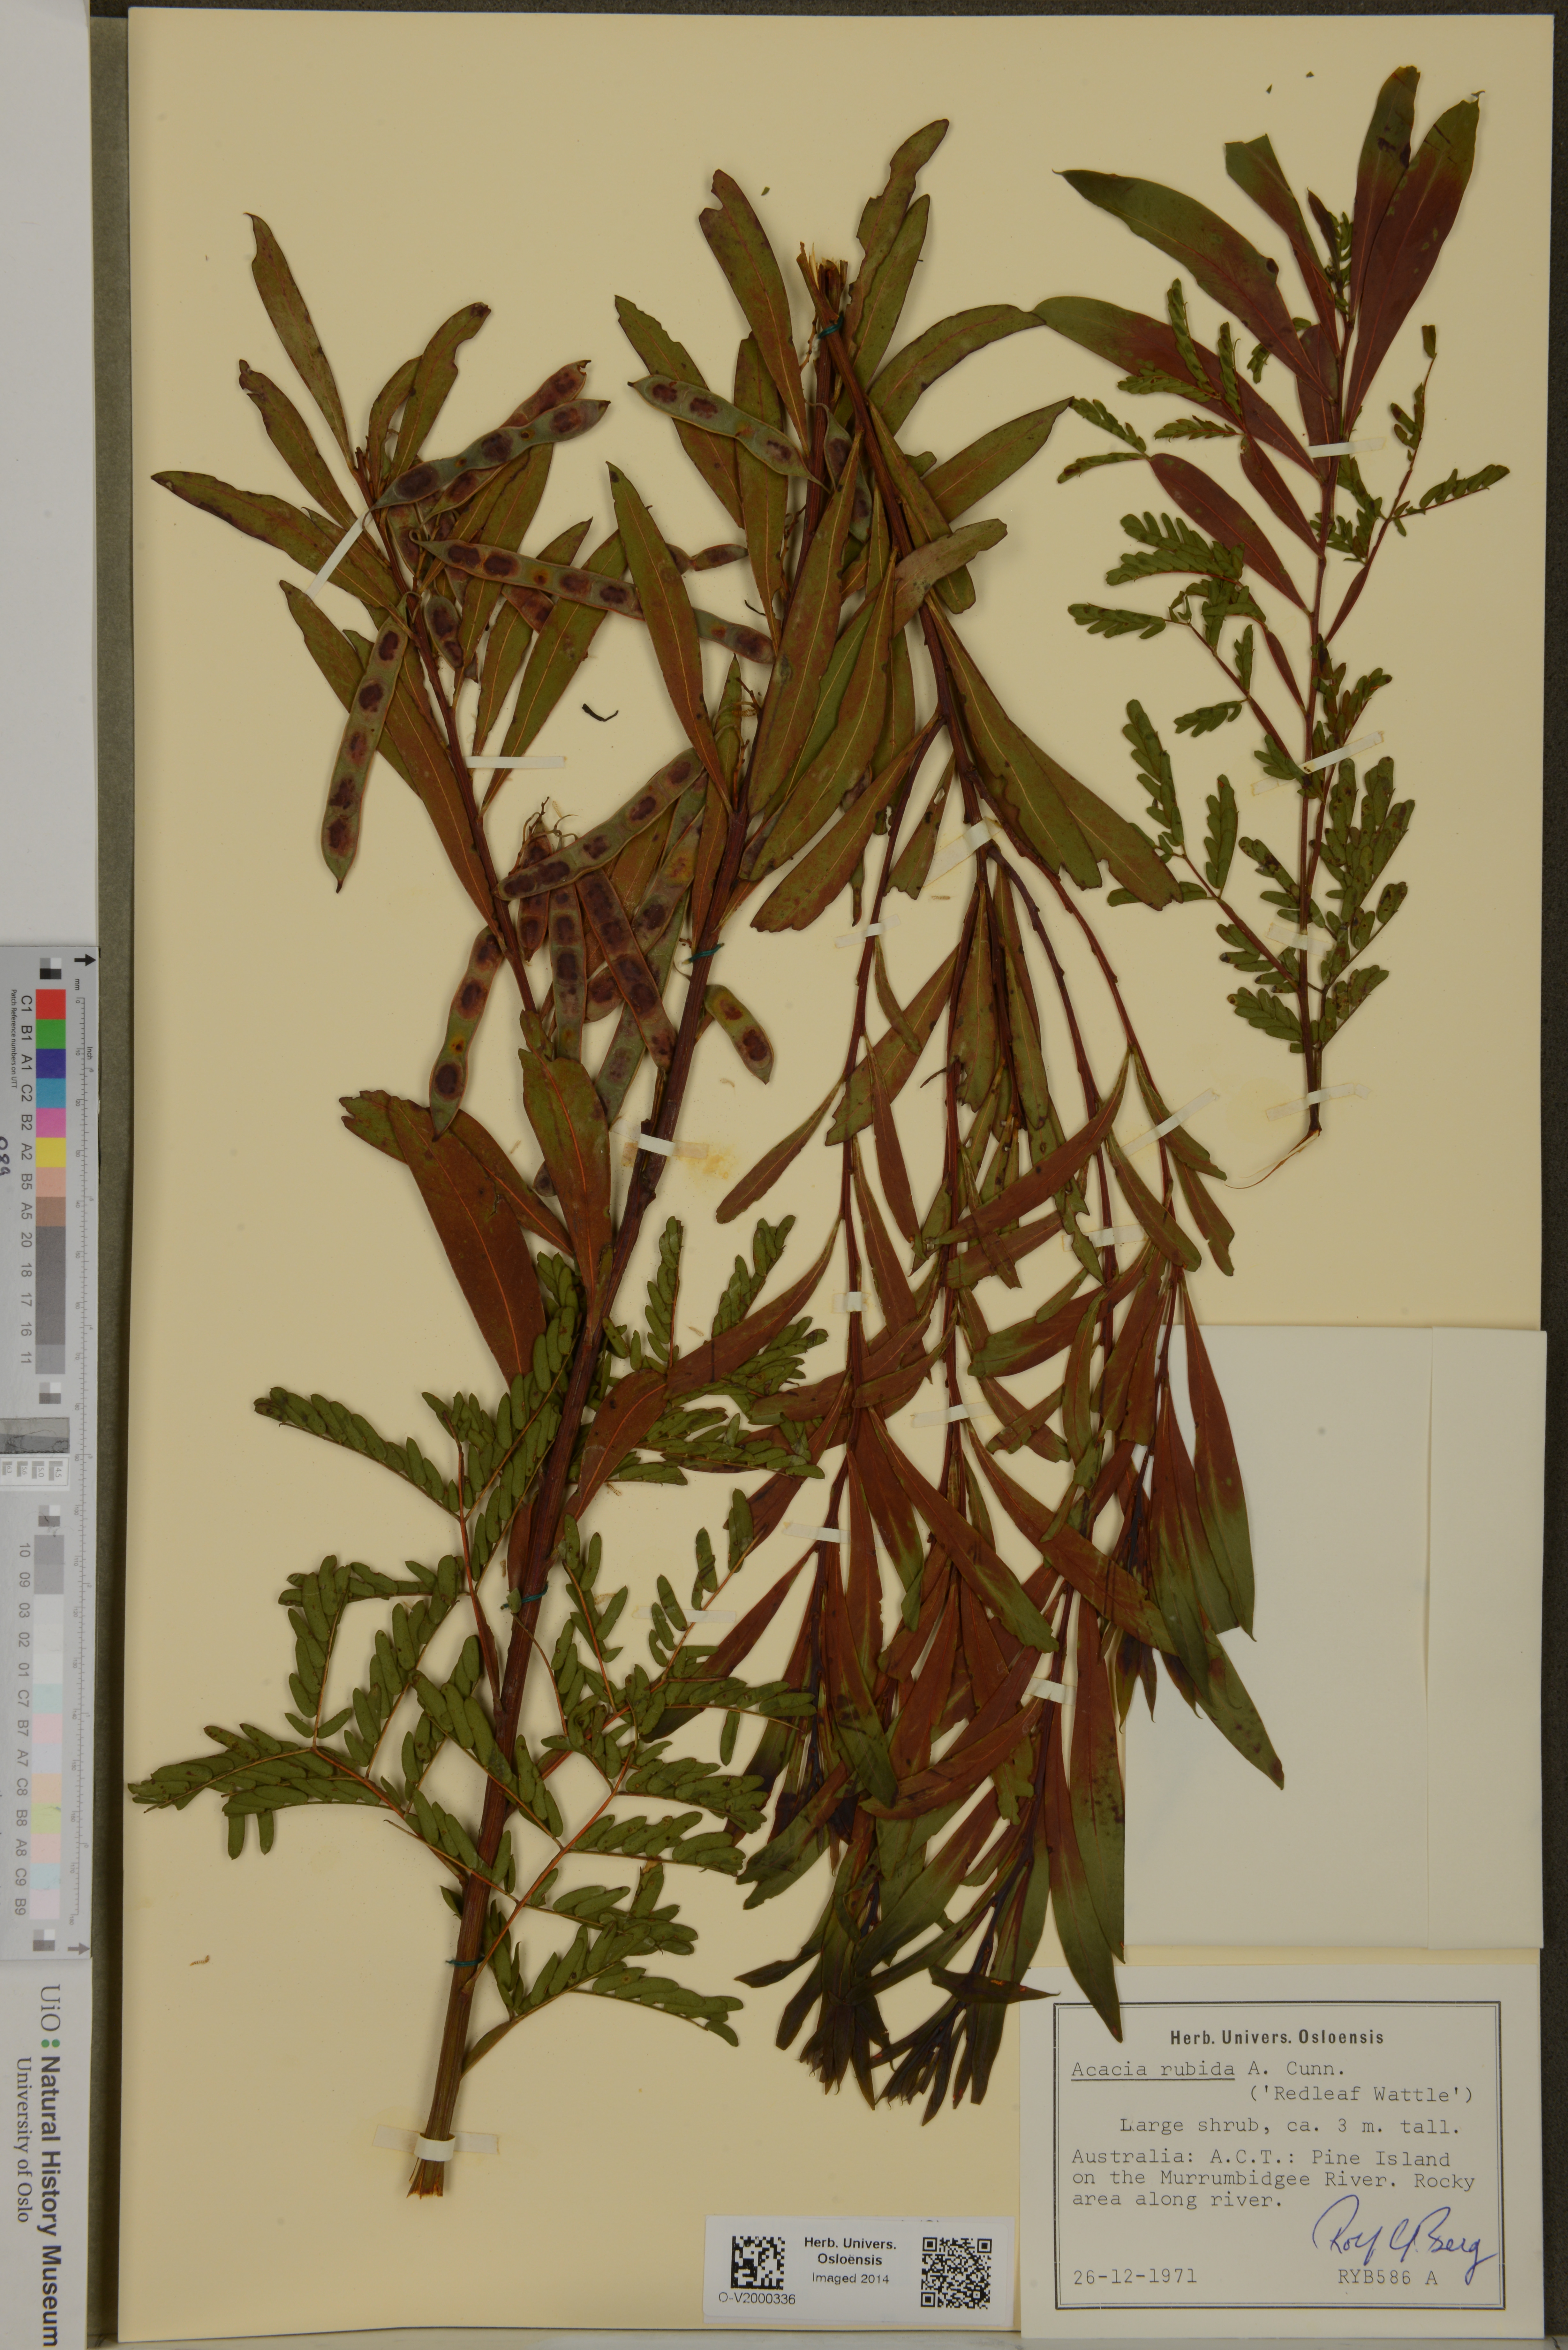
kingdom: Plantae
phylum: Tracheophyta
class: Magnoliopsida
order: Fabales
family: Fabaceae
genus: Acacia
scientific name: Acacia rubida
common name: Red leaf wattle
